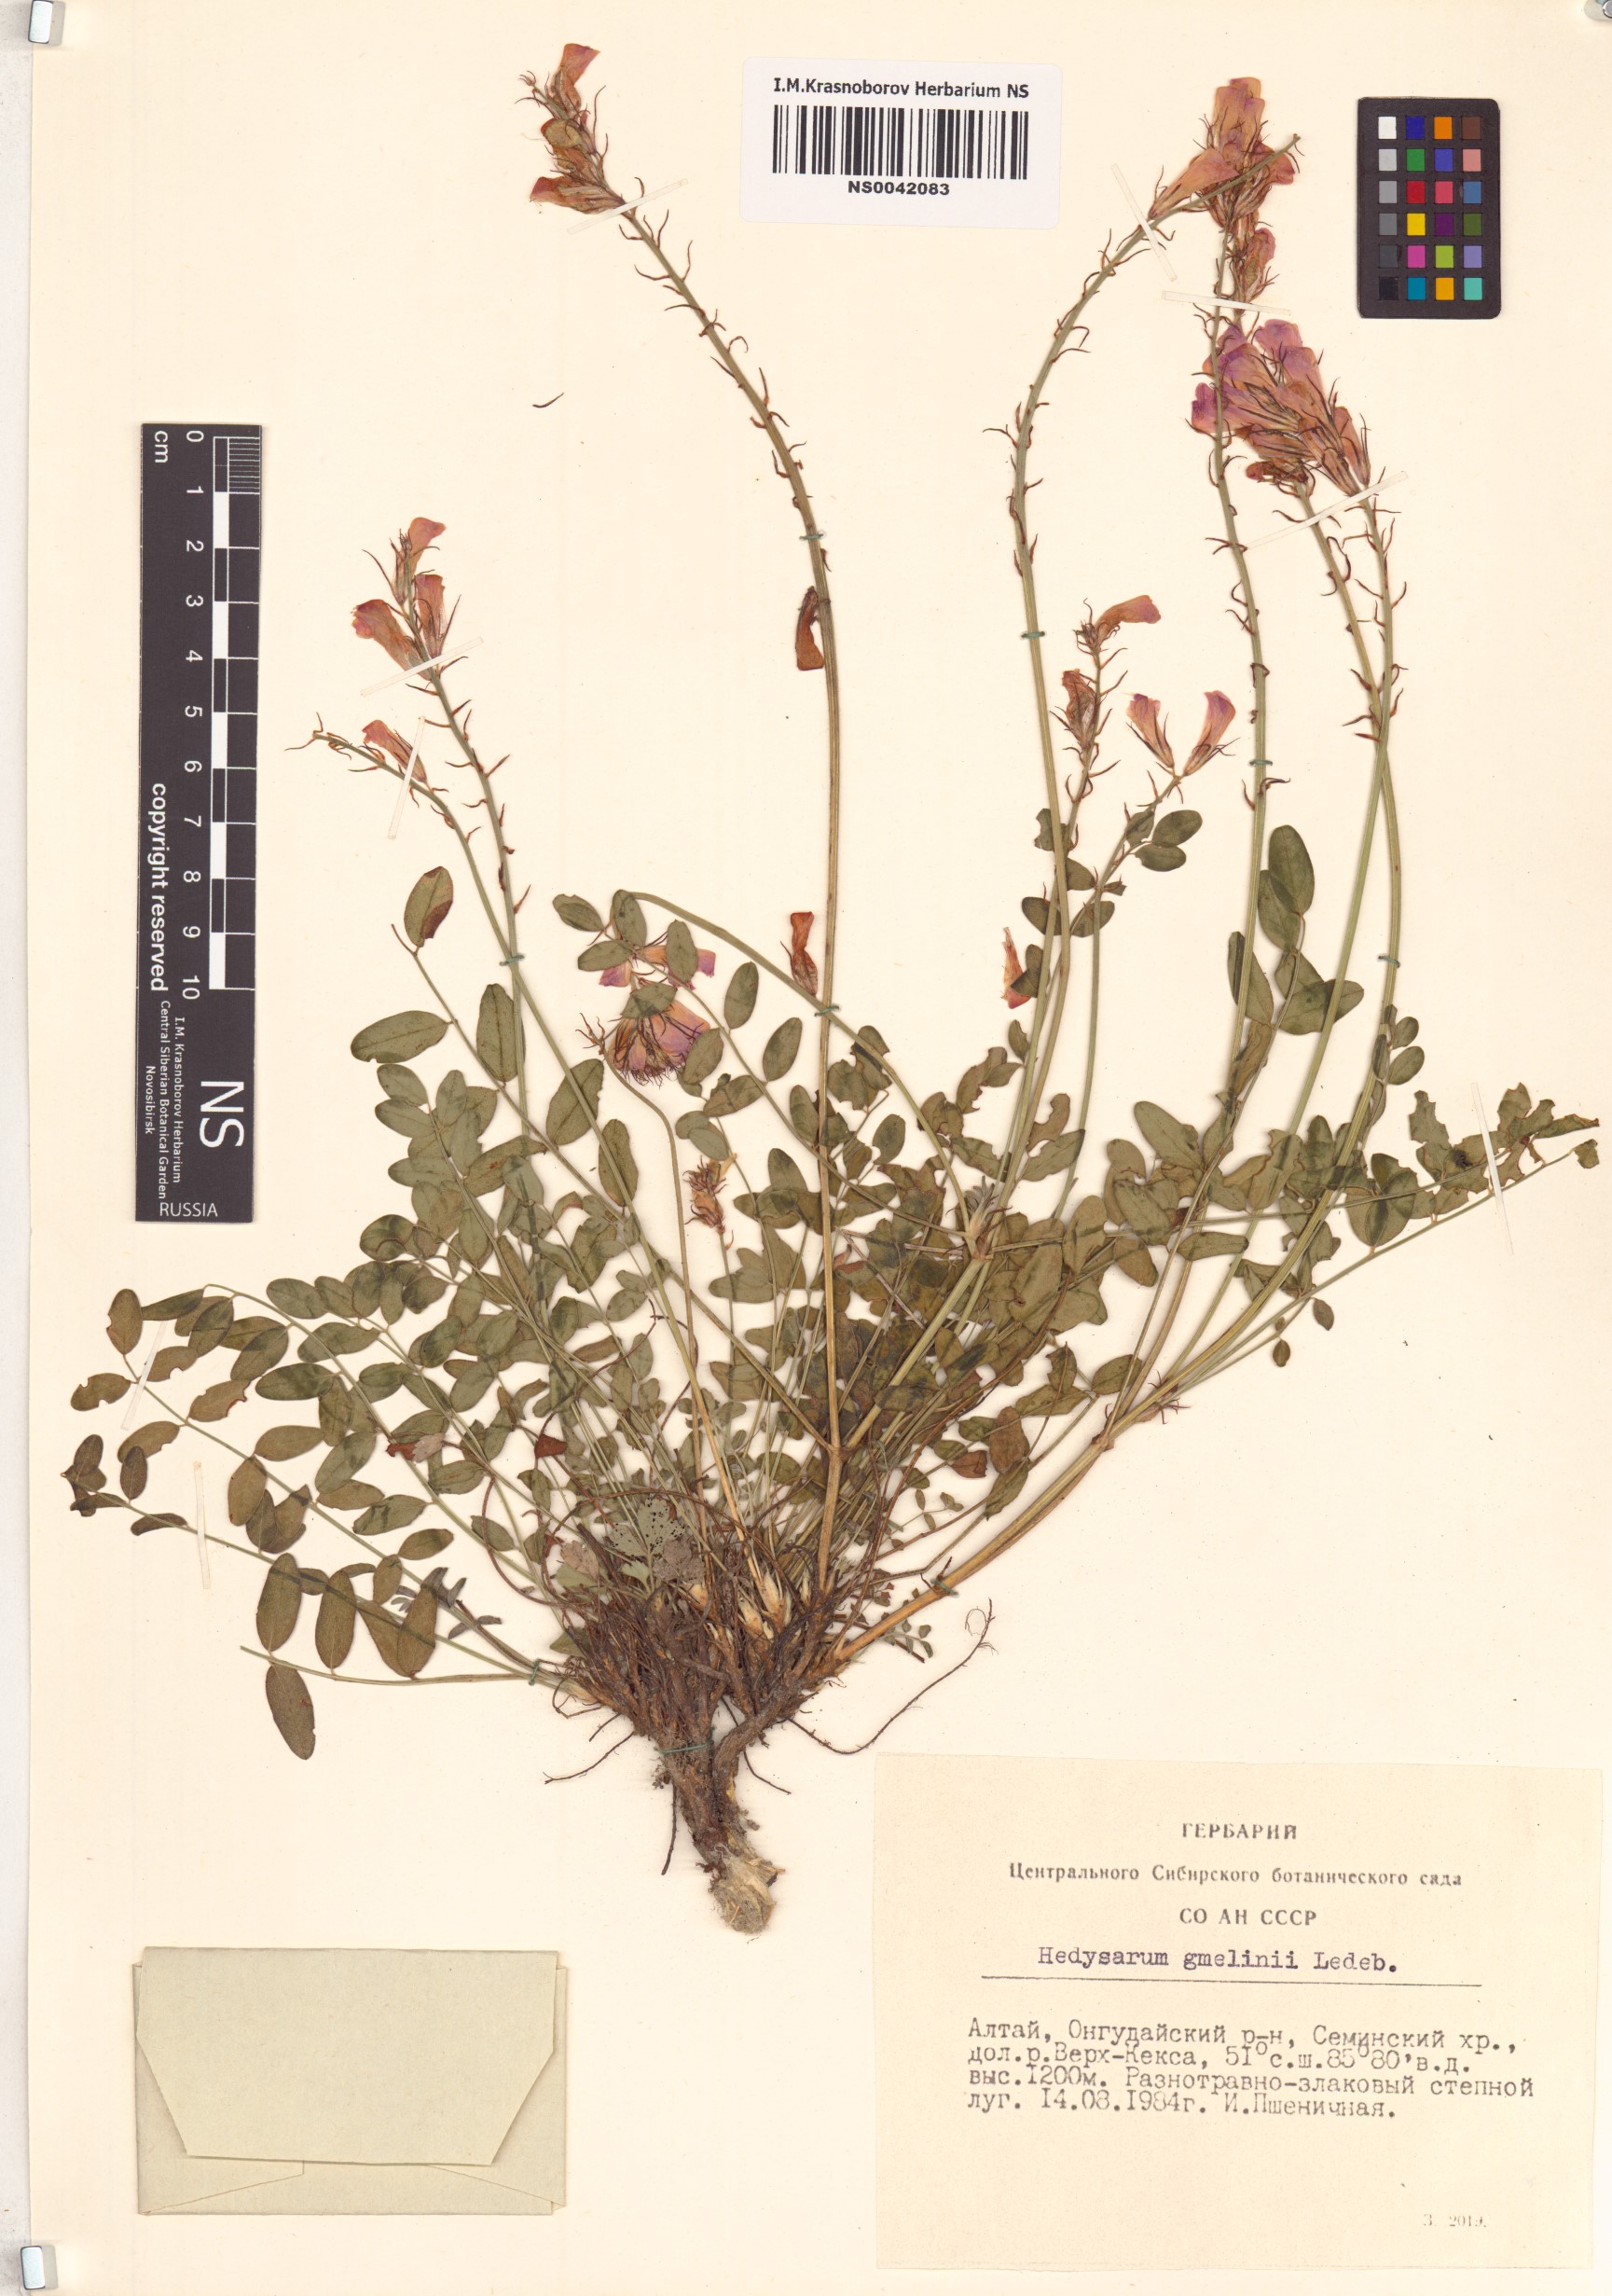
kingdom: Plantae
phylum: Tracheophyta
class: Magnoliopsida
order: Fabales
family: Fabaceae
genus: Hedysarum
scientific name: Hedysarum gmelinii
